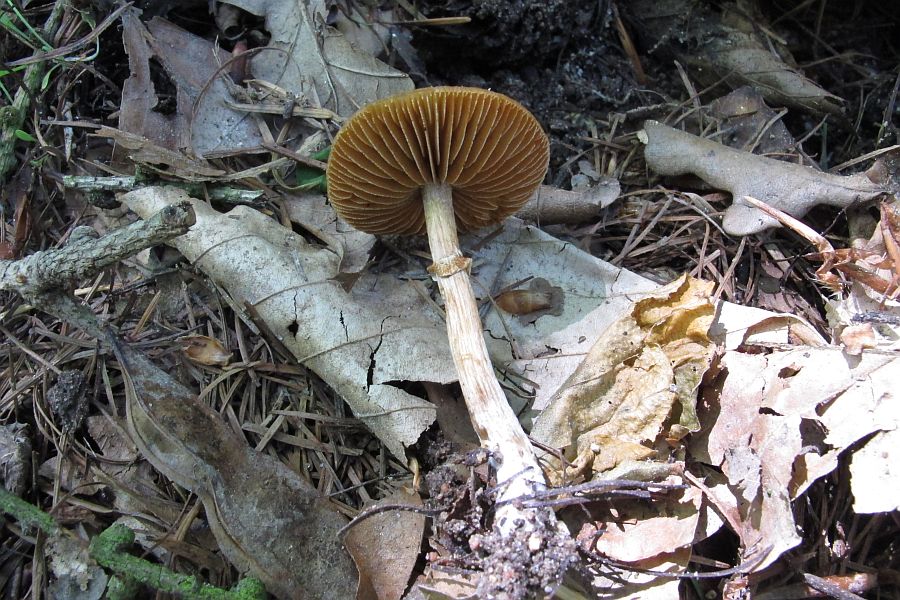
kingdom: Fungi
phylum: Basidiomycota
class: Agaricomycetes
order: Agaricales
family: Bolbitiaceae
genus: Conocybe
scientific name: Conocybe aporos
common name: tidlig dansehat
